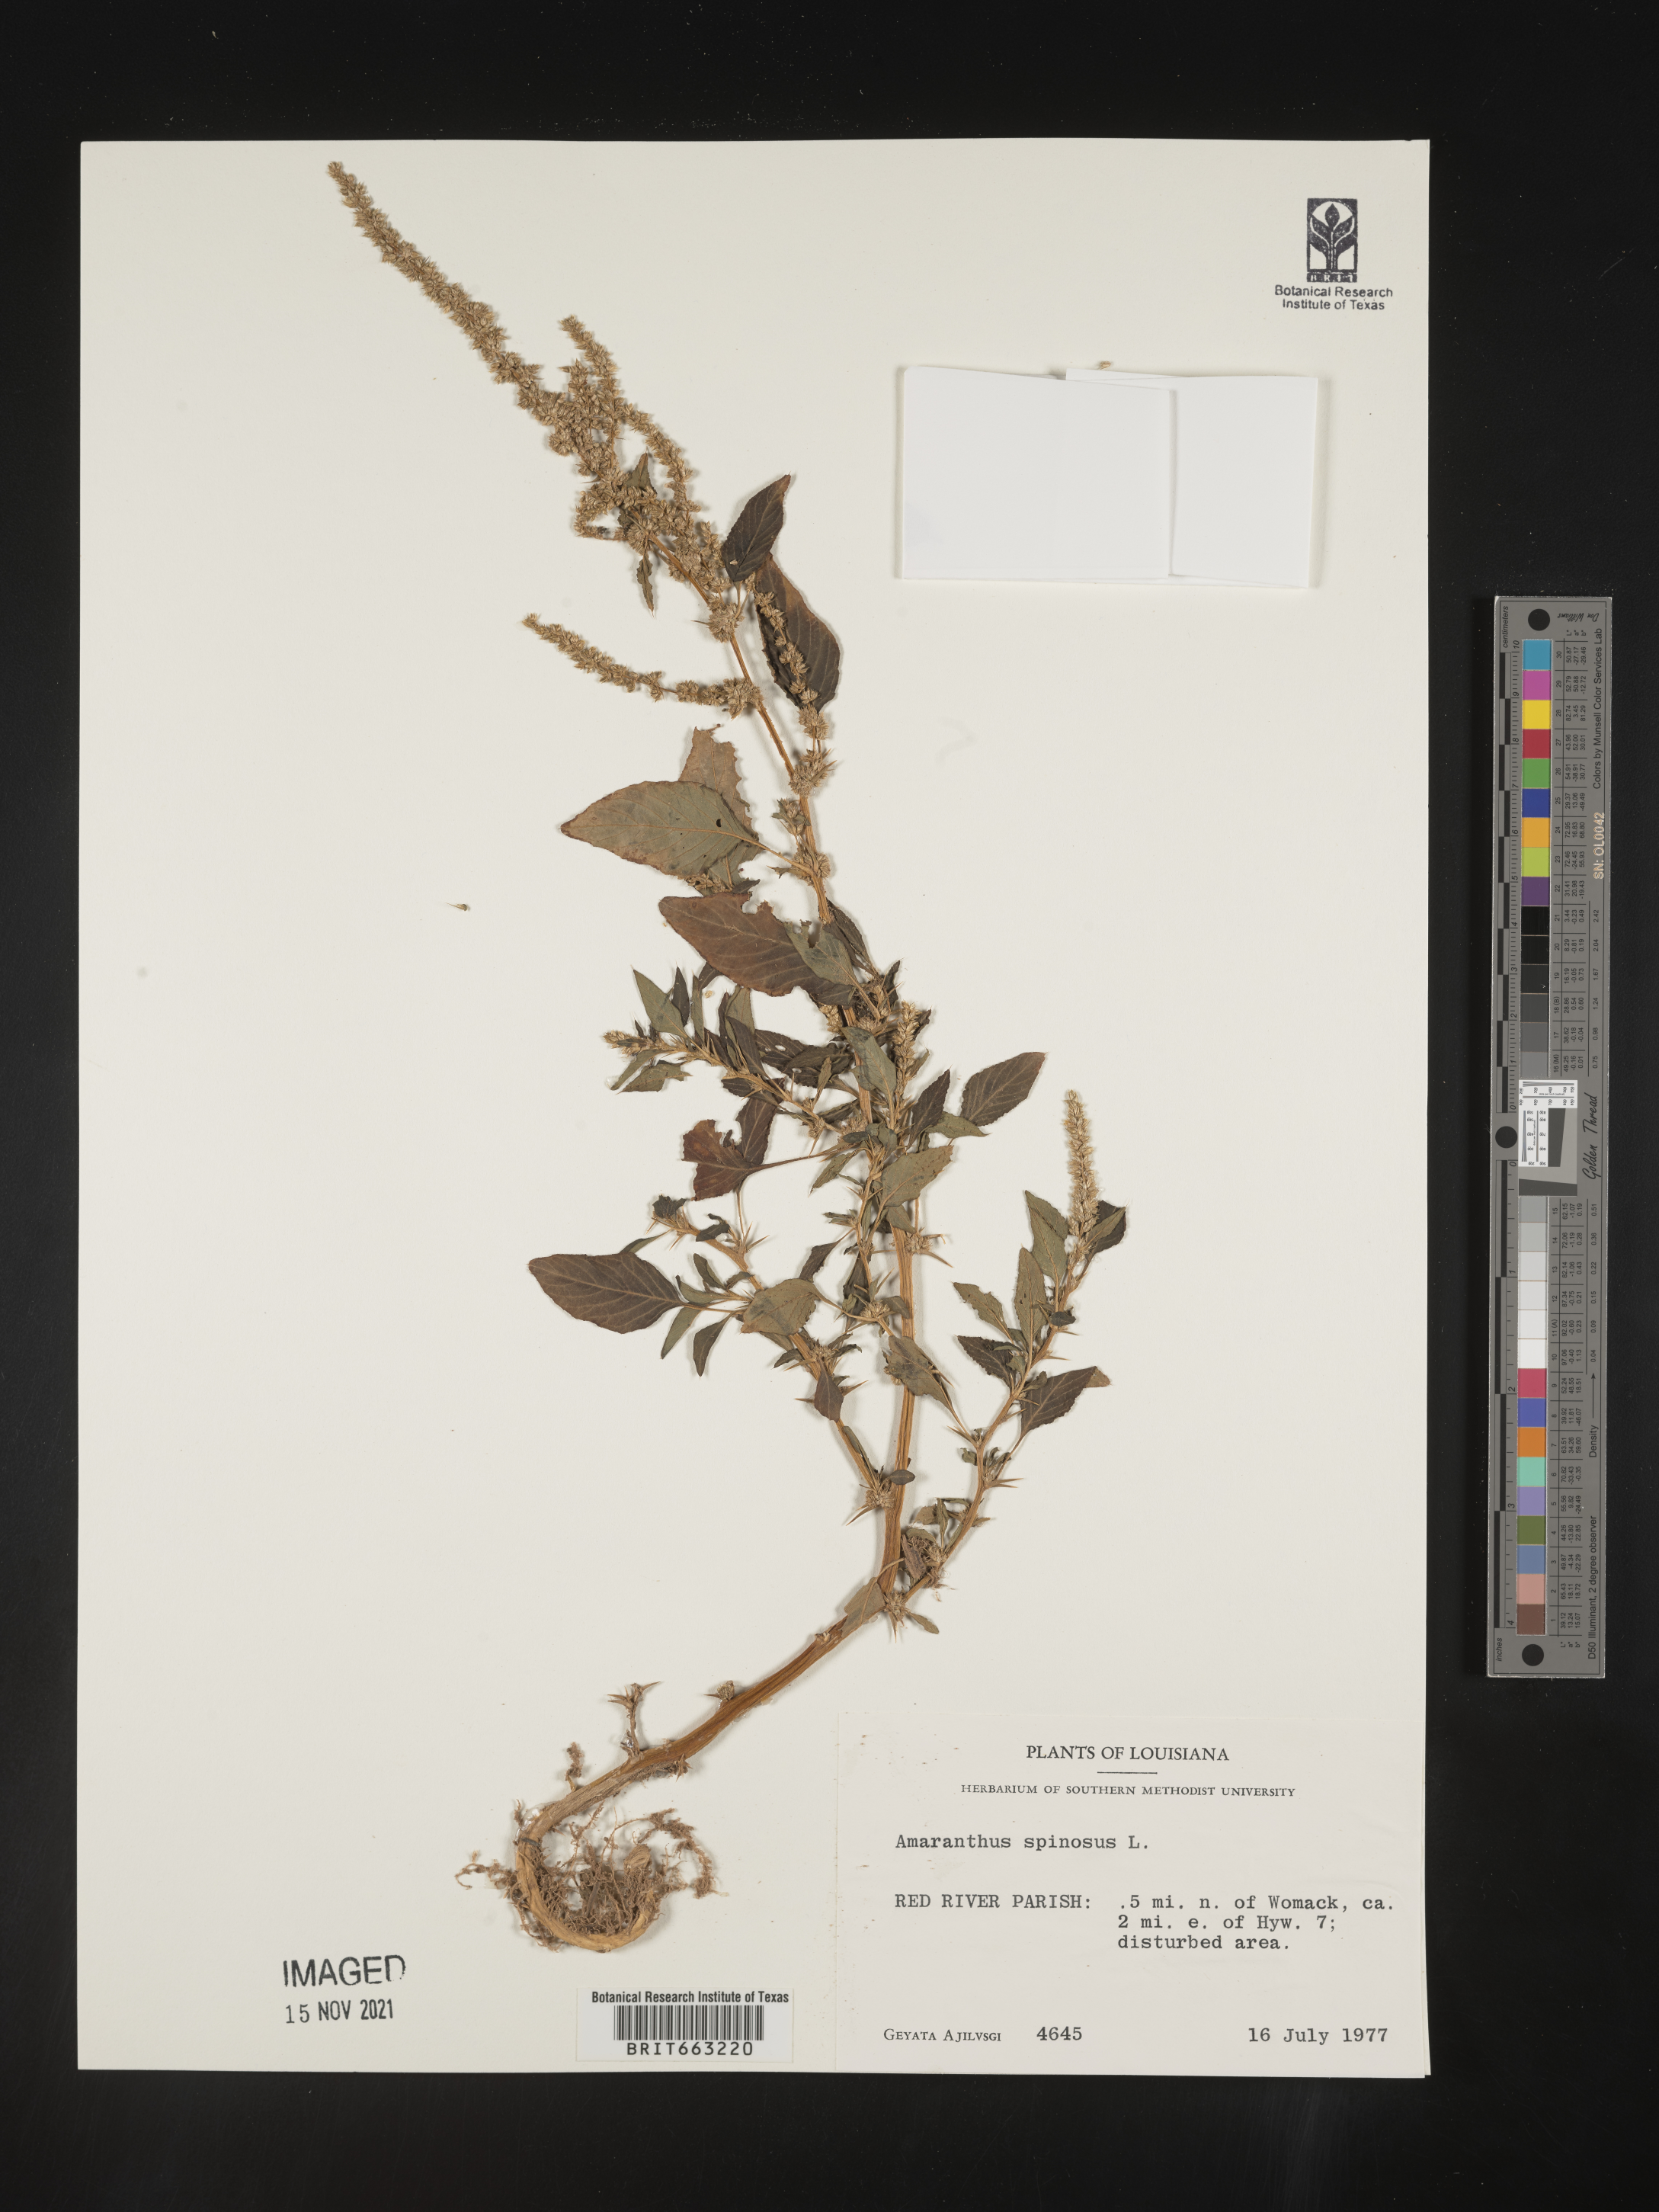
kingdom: Plantae
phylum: Tracheophyta
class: Magnoliopsida
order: Caryophyllales
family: Amaranthaceae
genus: Amaranthus
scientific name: Amaranthus spinosus
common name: Spiny amaranth
